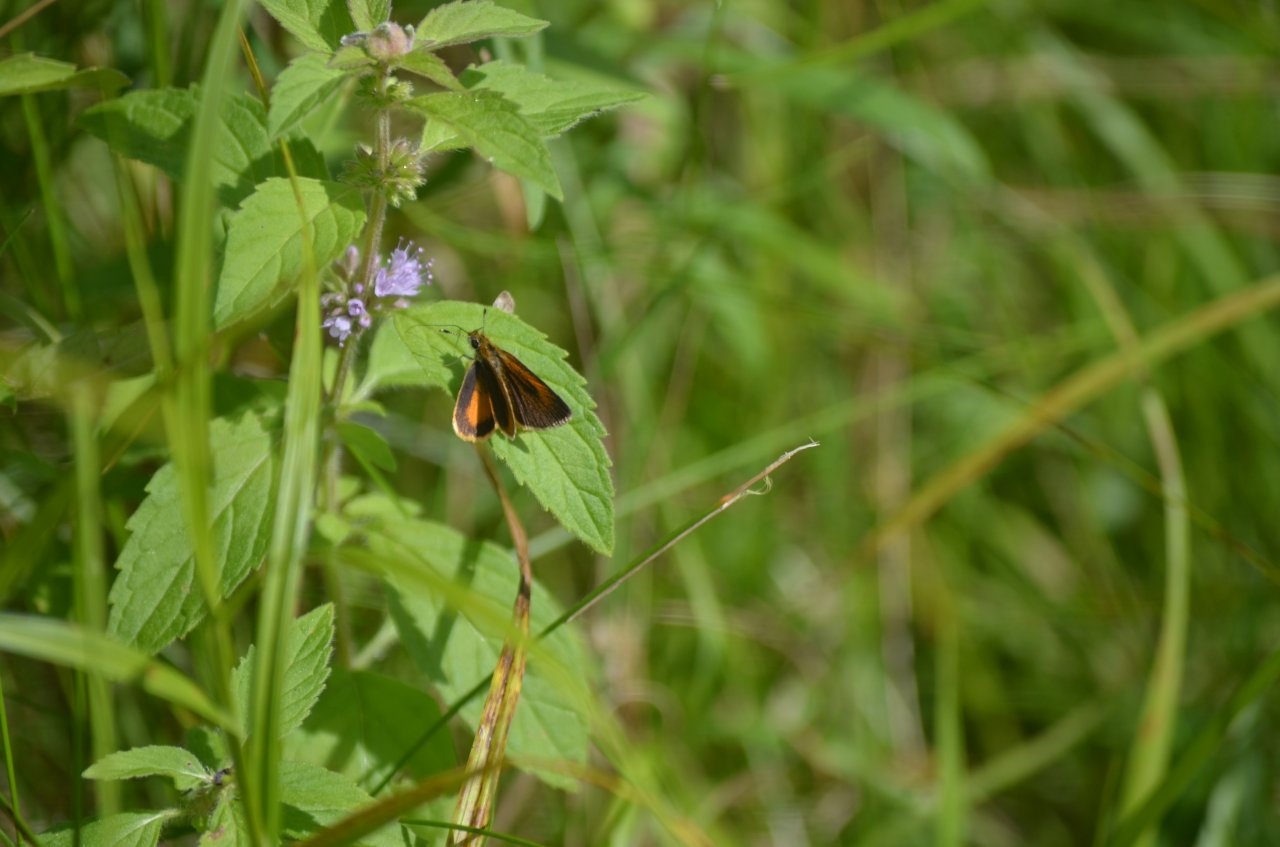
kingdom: Animalia
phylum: Arthropoda
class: Insecta
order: Lepidoptera
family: Hesperiidae
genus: Ancyloxypha
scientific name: Ancyloxypha numitor
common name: Least Skipper
